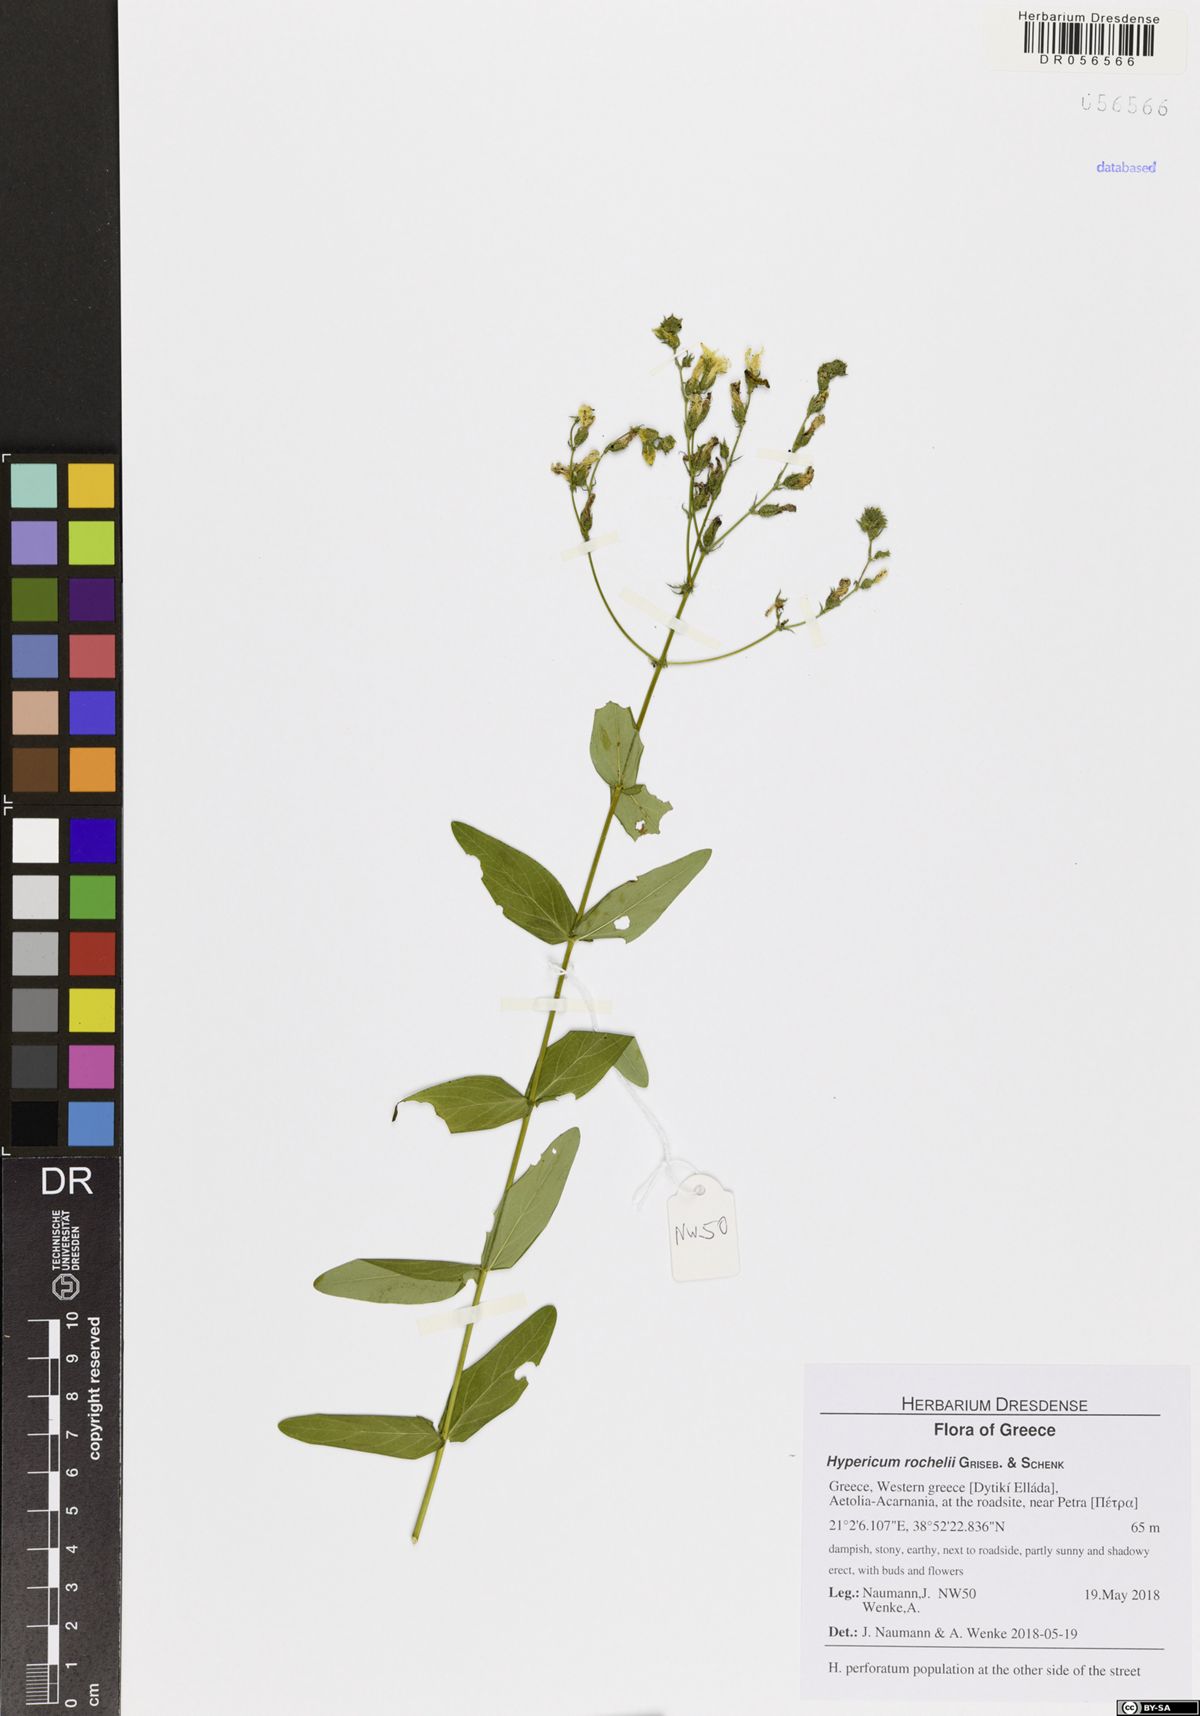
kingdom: Plantae
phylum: Tracheophyta
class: Magnoliopsida
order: Malpighiales
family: Hypericaceae
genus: Hypericum
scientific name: Hypericum rochelii
